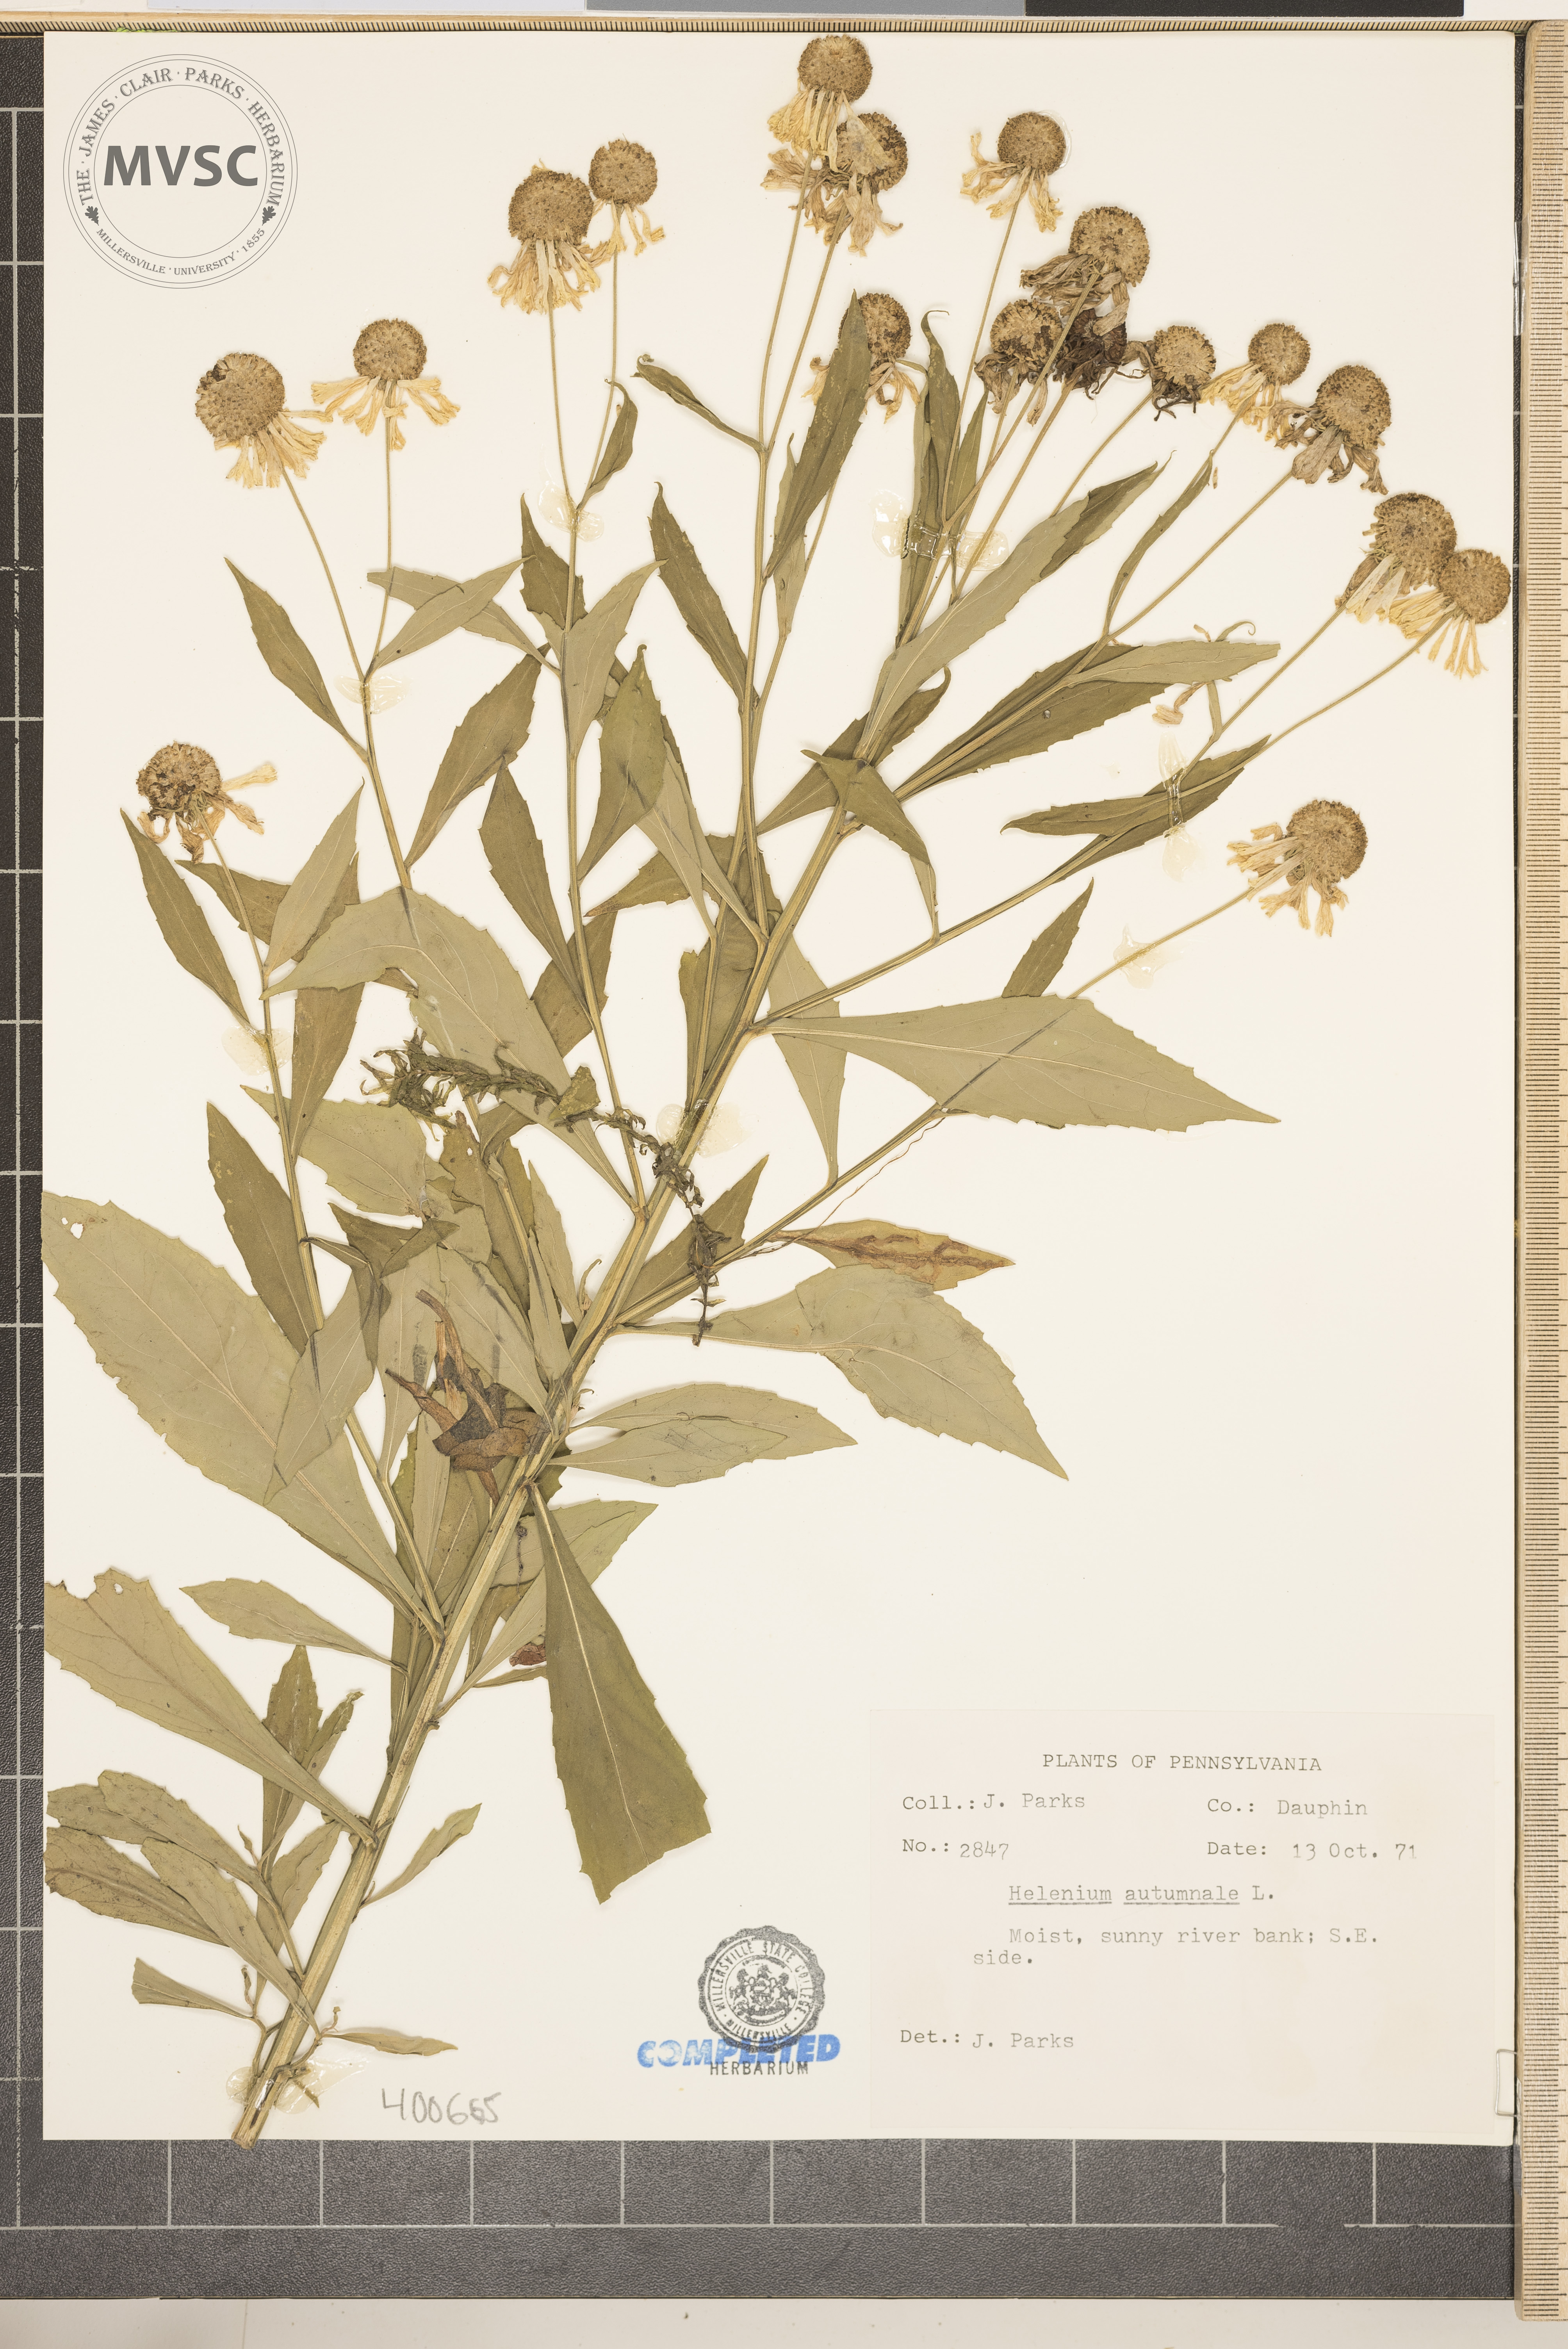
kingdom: Plantae
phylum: Tracheophyta
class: Magnoliopsida
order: Asterales
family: Asteraceae
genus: Helenium
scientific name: Helenium autumnale
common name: Sneezeweed
